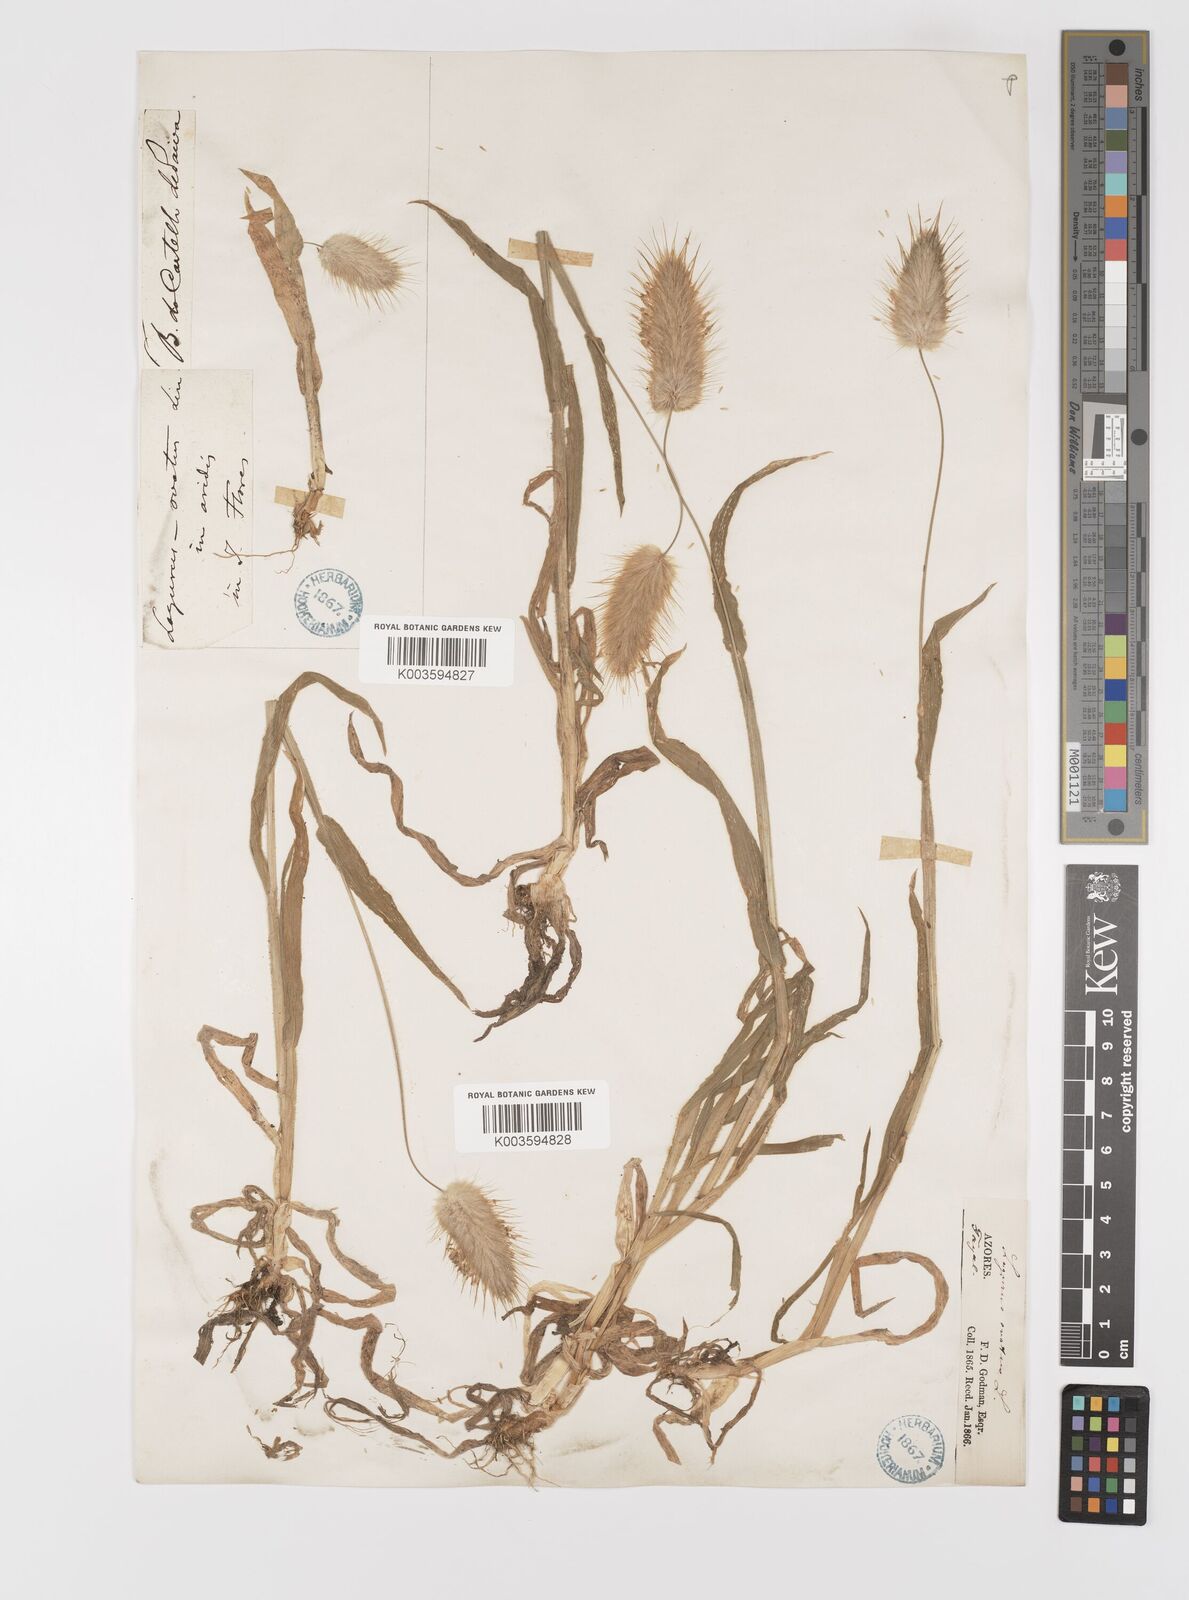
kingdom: Plantae
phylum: Tracheophyta
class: Liliopsida
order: Poales
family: Poaceae
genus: Lagurus
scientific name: Lagurus ovatus
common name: Hare's-tail
